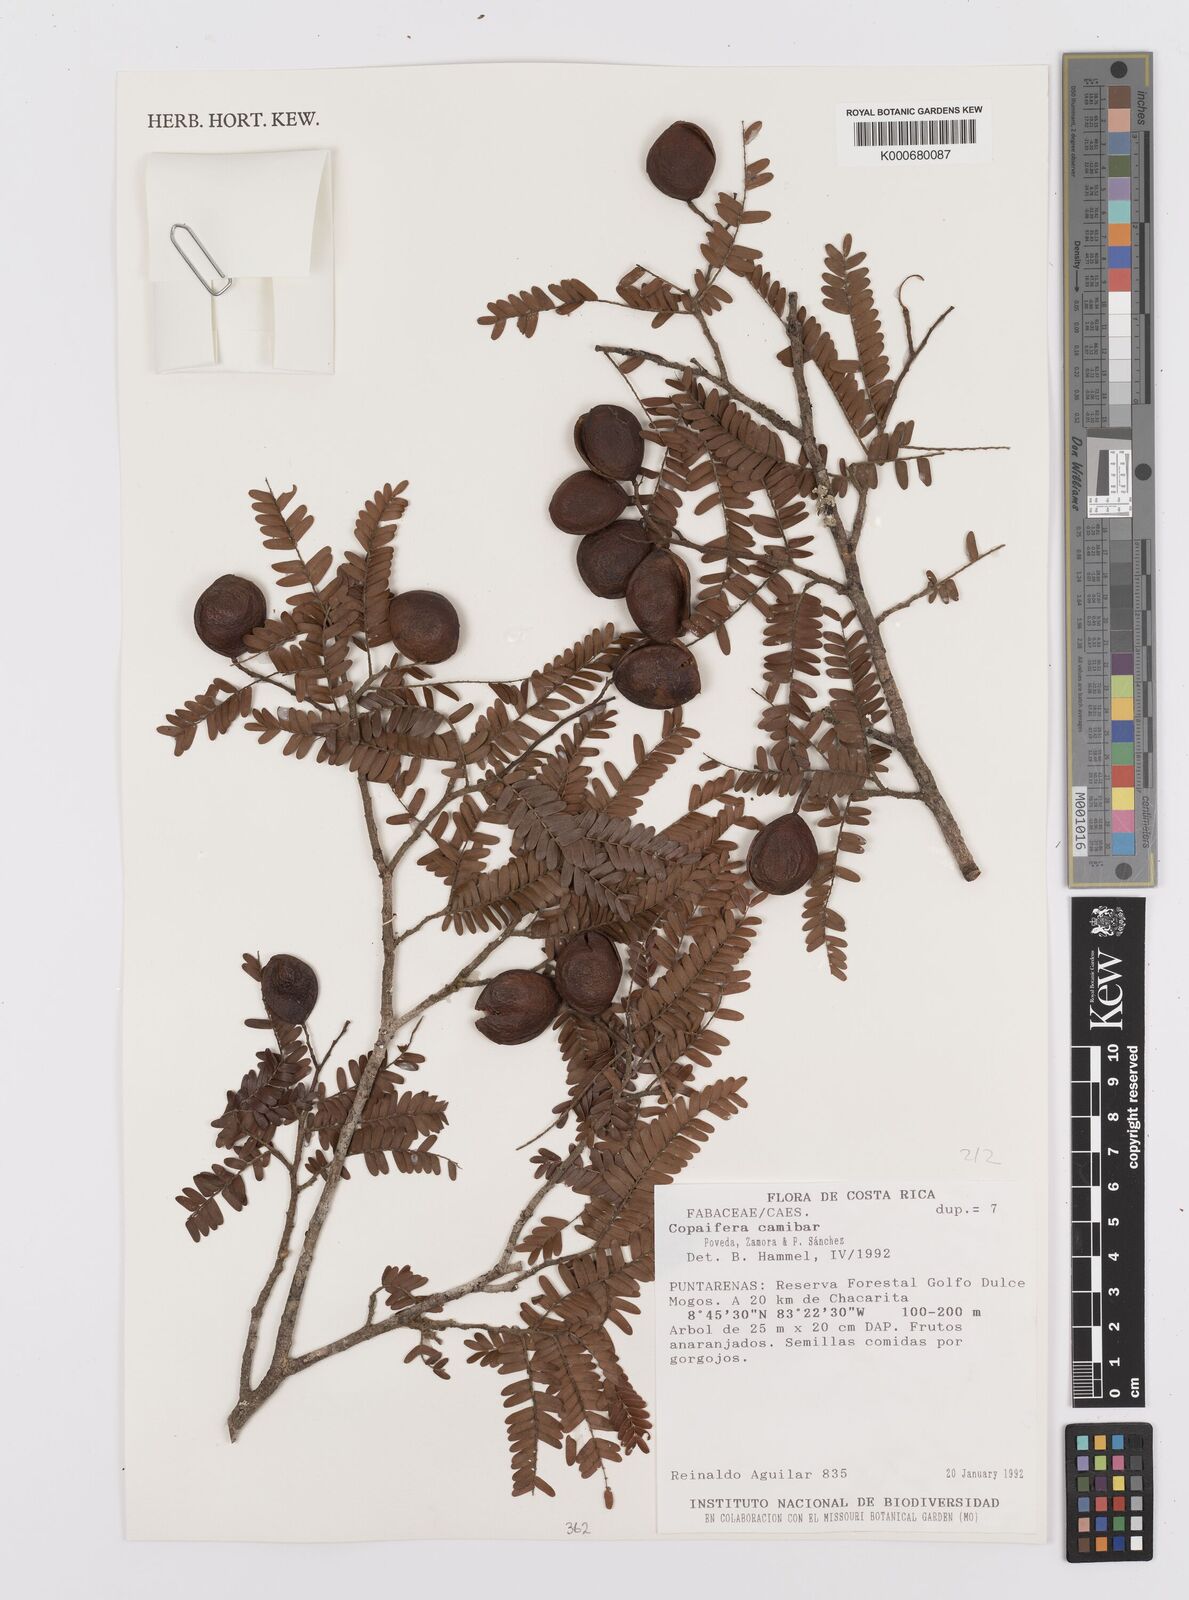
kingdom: Plantae
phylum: Tracheophyta
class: Magnoliopsida
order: Fabales
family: Fabaceae
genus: Copaifera
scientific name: Copaifera
